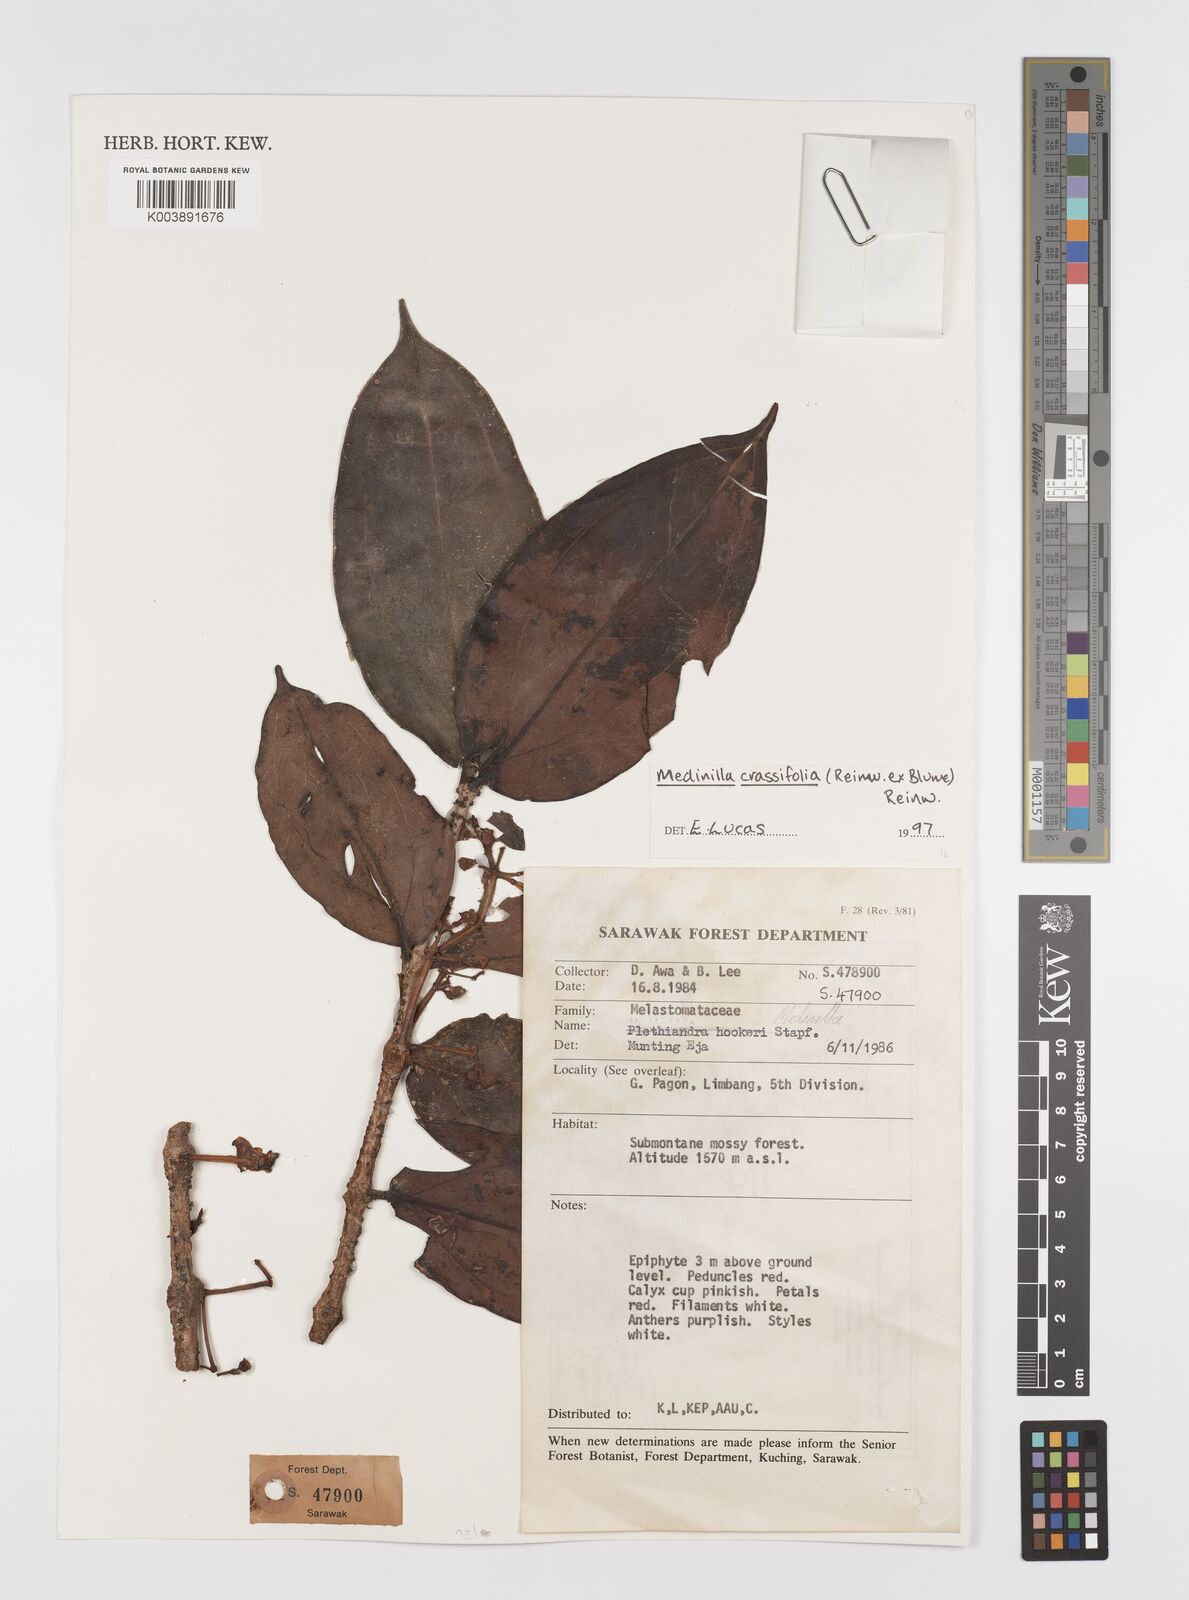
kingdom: Plantae
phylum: Tracheophyta
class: Magnoliopsida
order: Myrtales
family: Melastomataceae
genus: Medinilla
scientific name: Medinilla crassifolia
